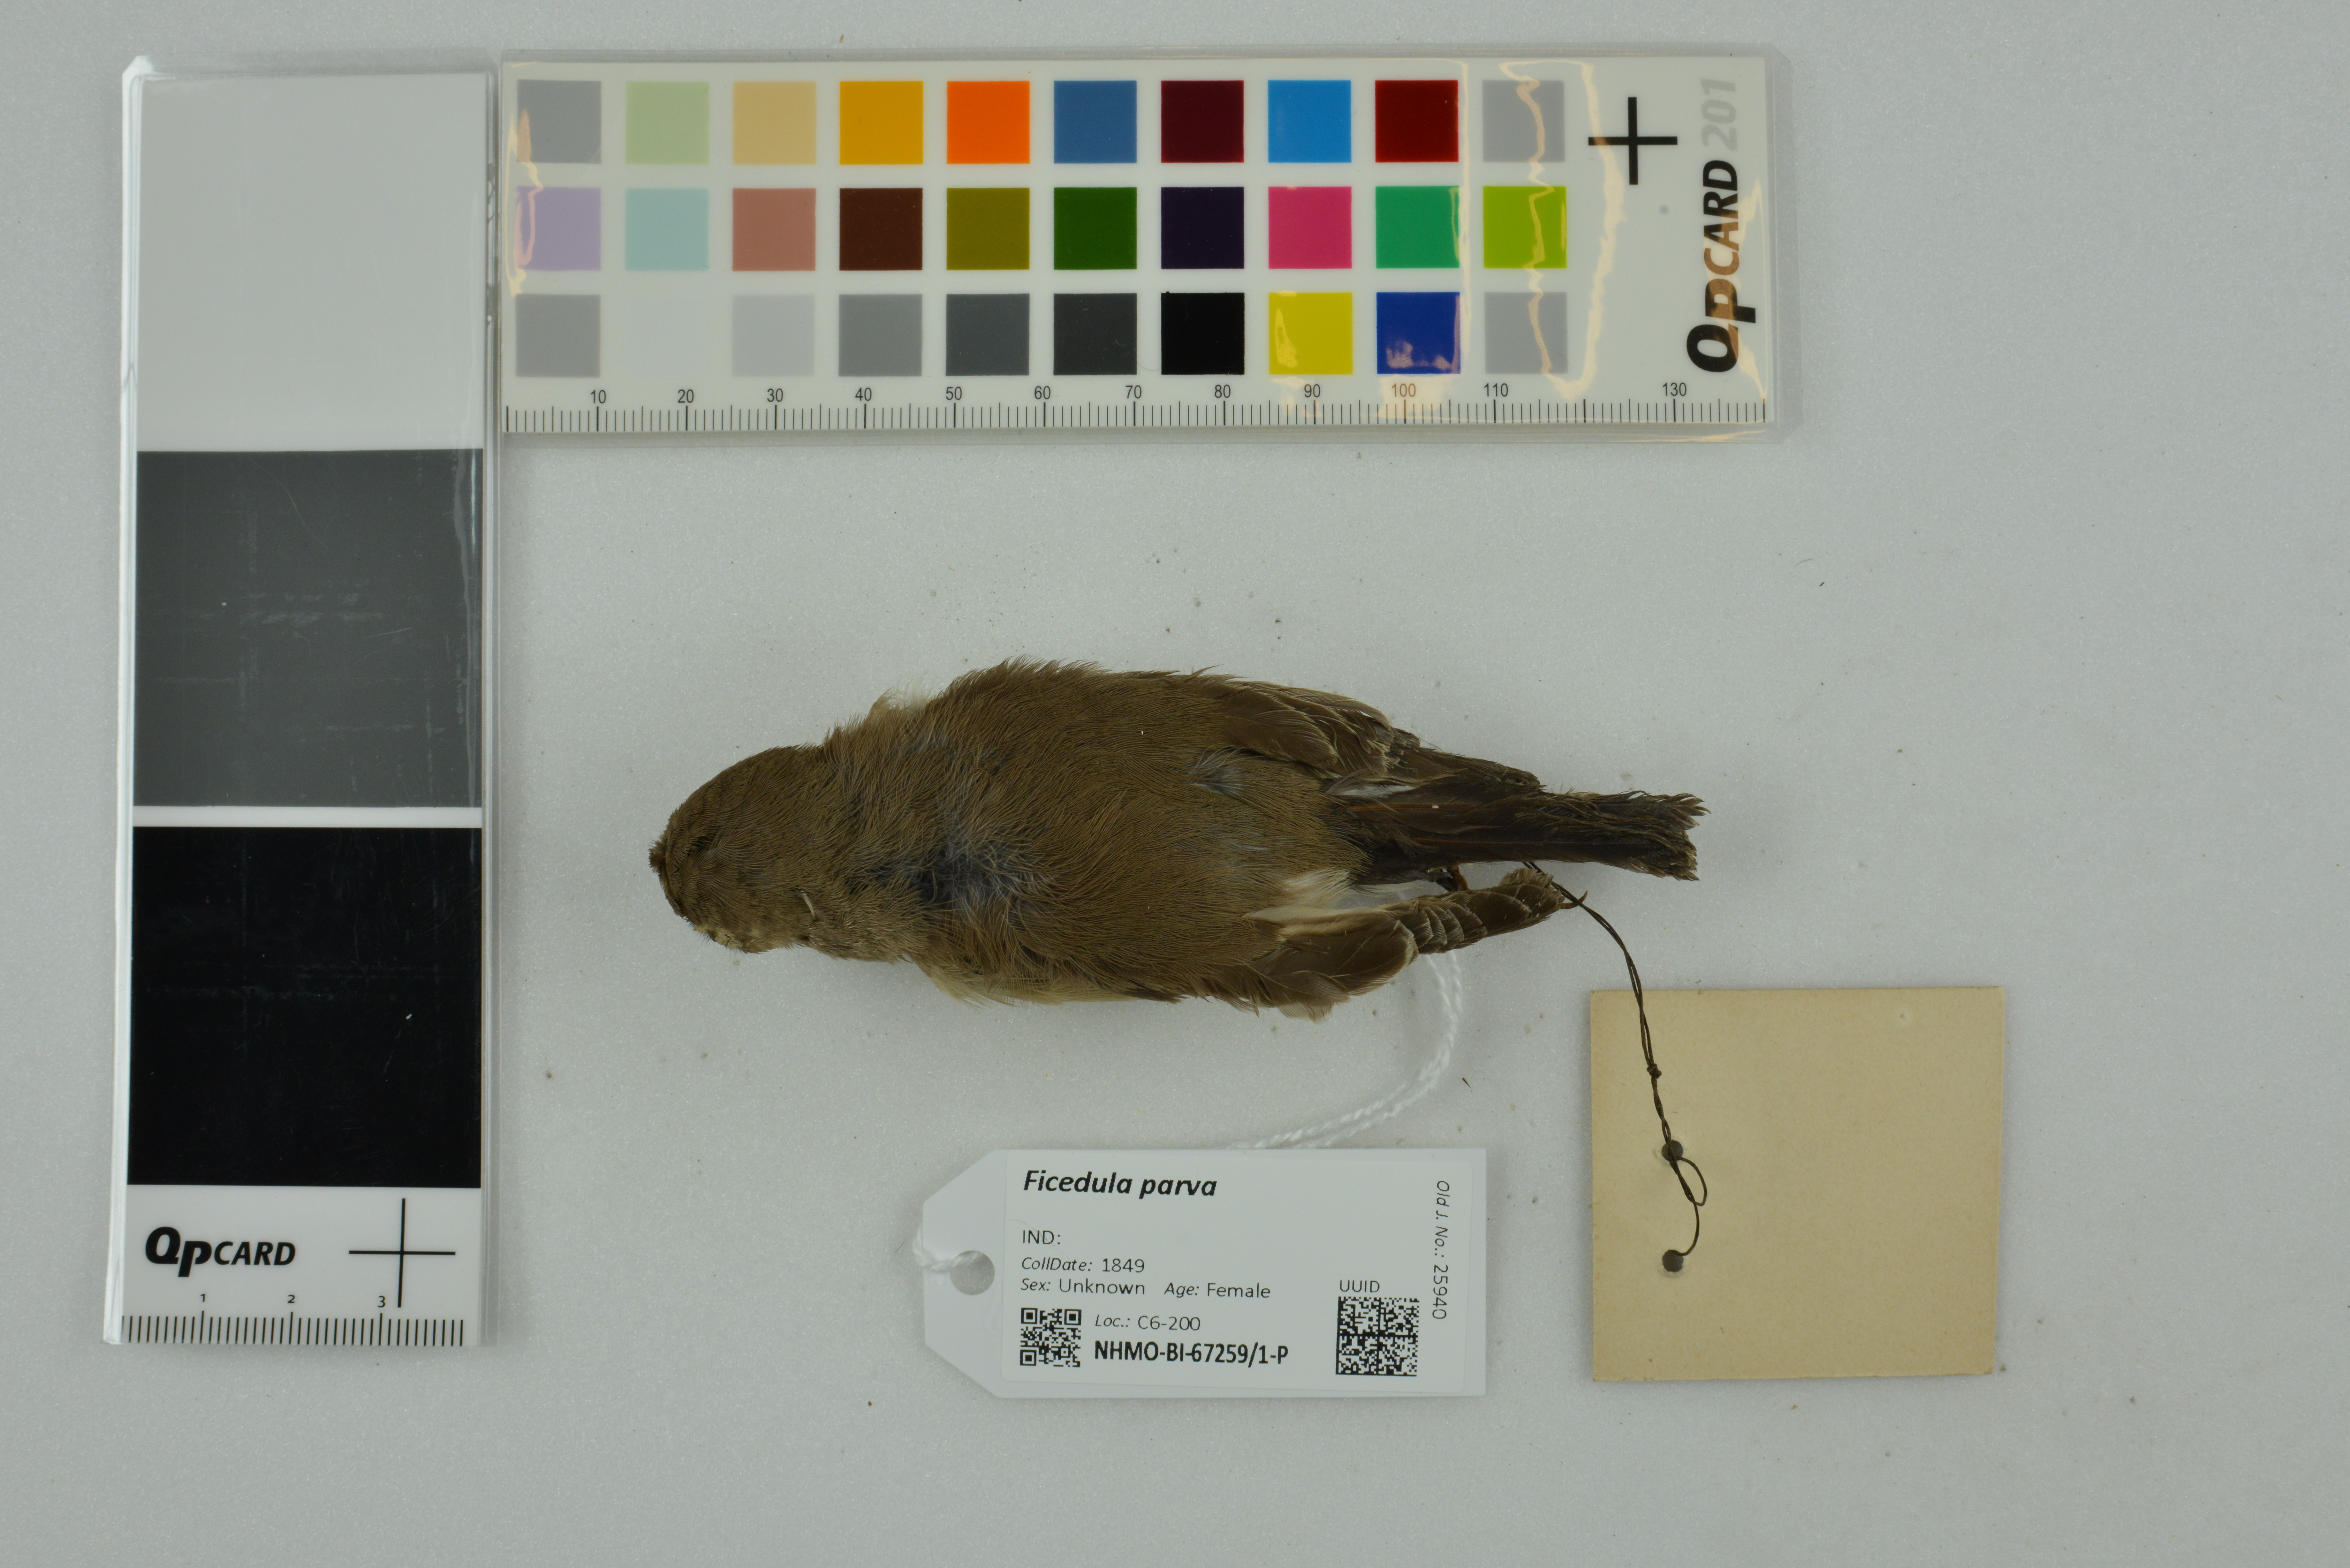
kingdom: Animalia
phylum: Chordata
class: Aves
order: Passeriformes
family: Muscicapidae
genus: Ficedula
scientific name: Ficedula parva
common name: Red-breasted flycatcher
